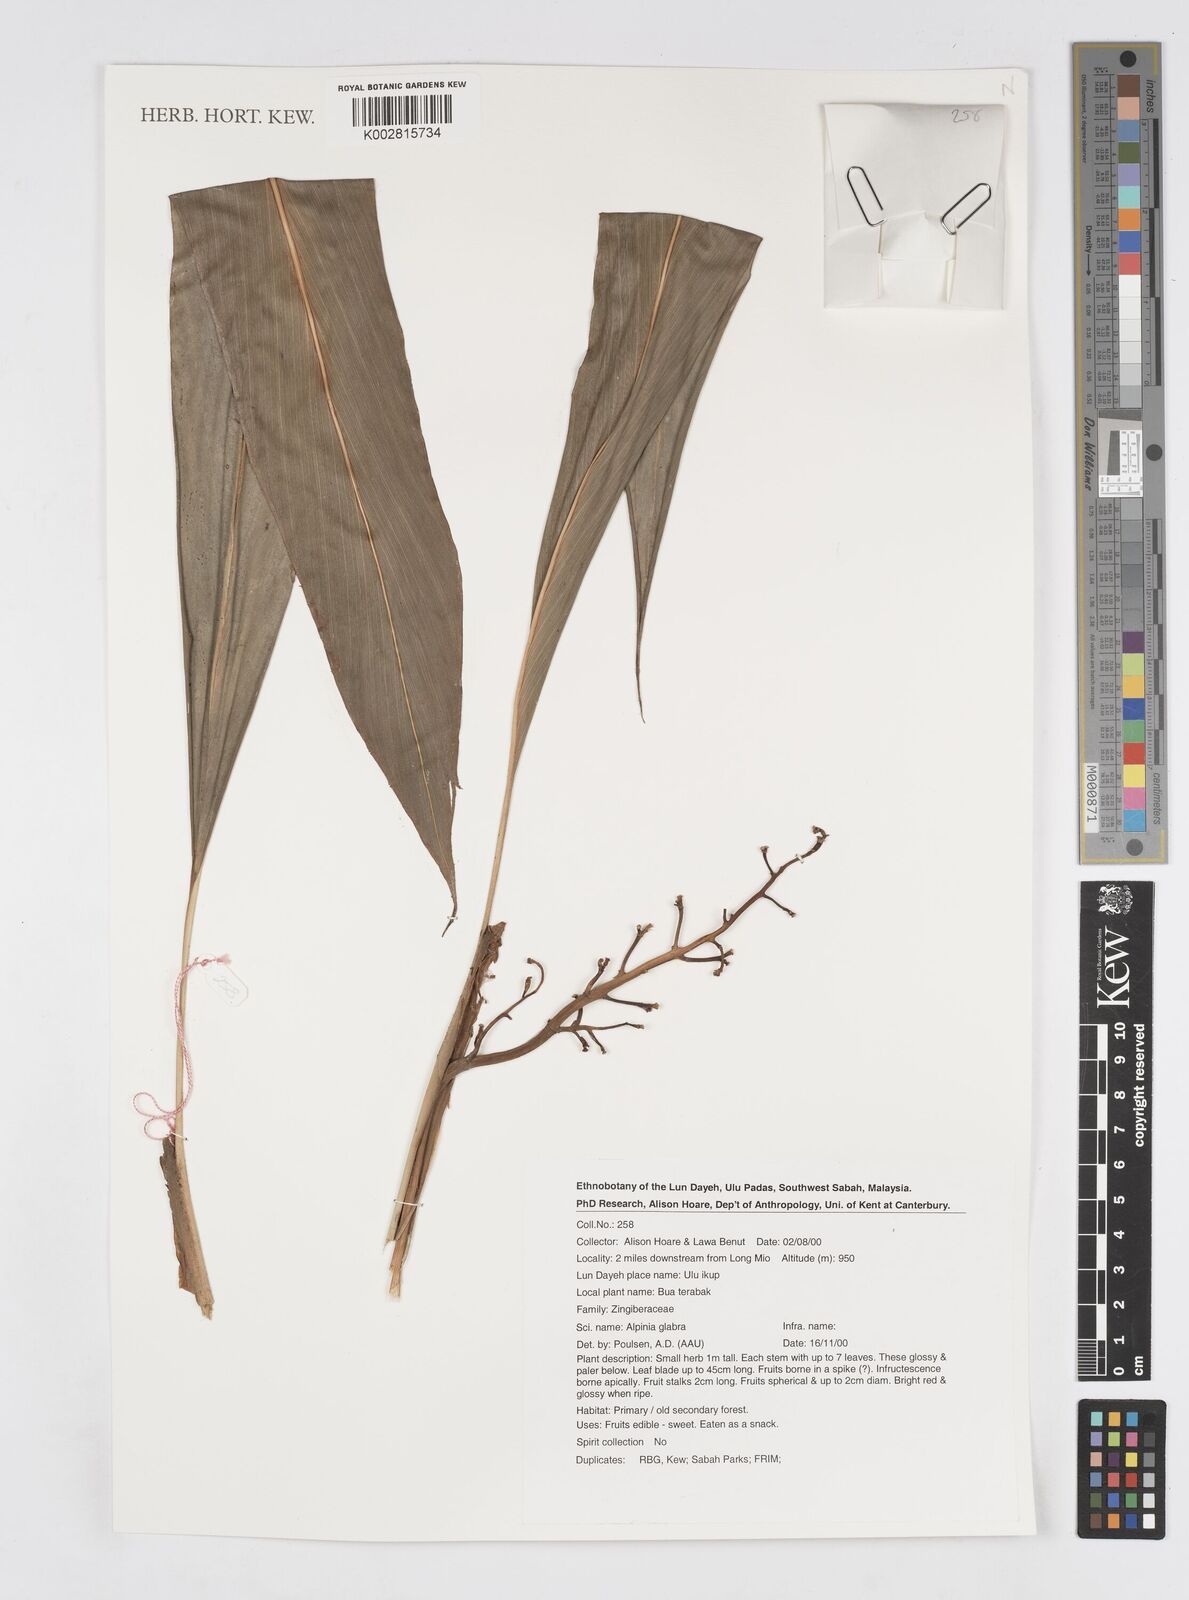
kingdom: Plantae
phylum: Tracheophyta
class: Liliopsida
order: Zingiberales
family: Zingiberaceae
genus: Alpinia
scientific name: Alpinia glabra
